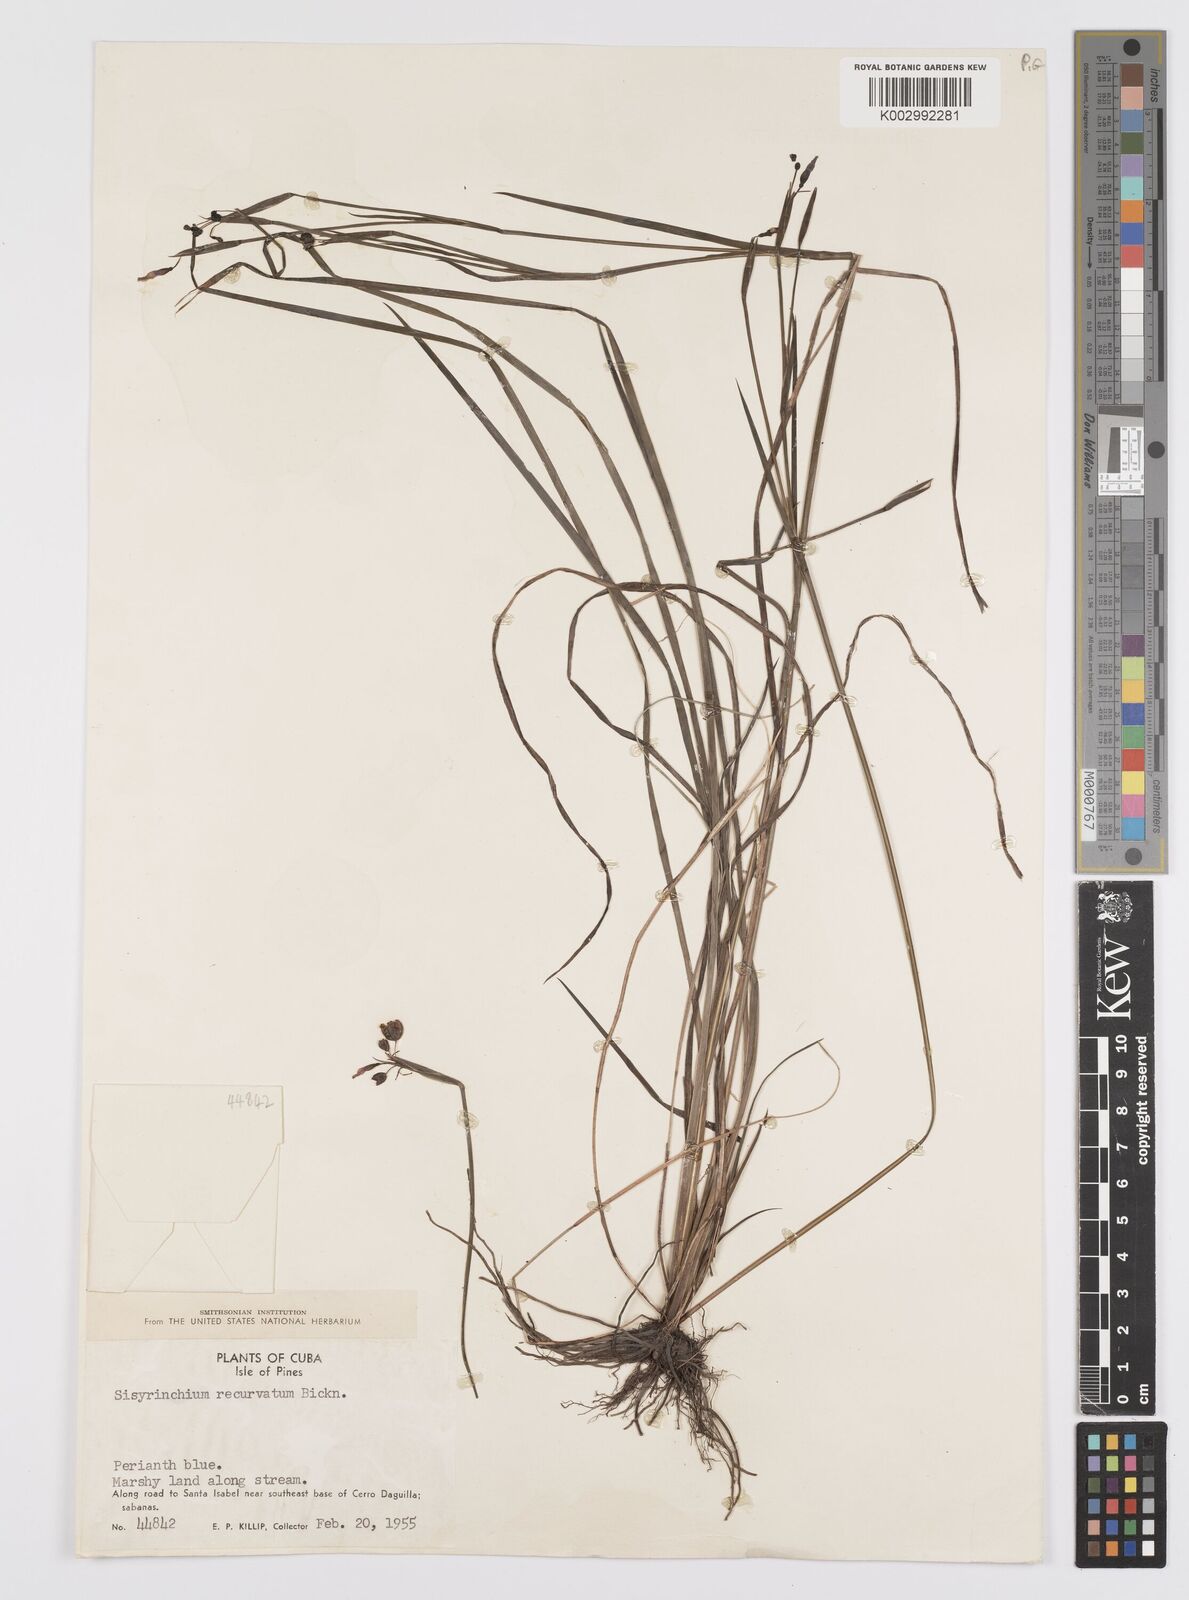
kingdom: Plantae
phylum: Tracheophyta
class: Liliopsida
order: Asparagales
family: Iridaceae
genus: Sisyrinchium
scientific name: Sisyrinchium miamiense
